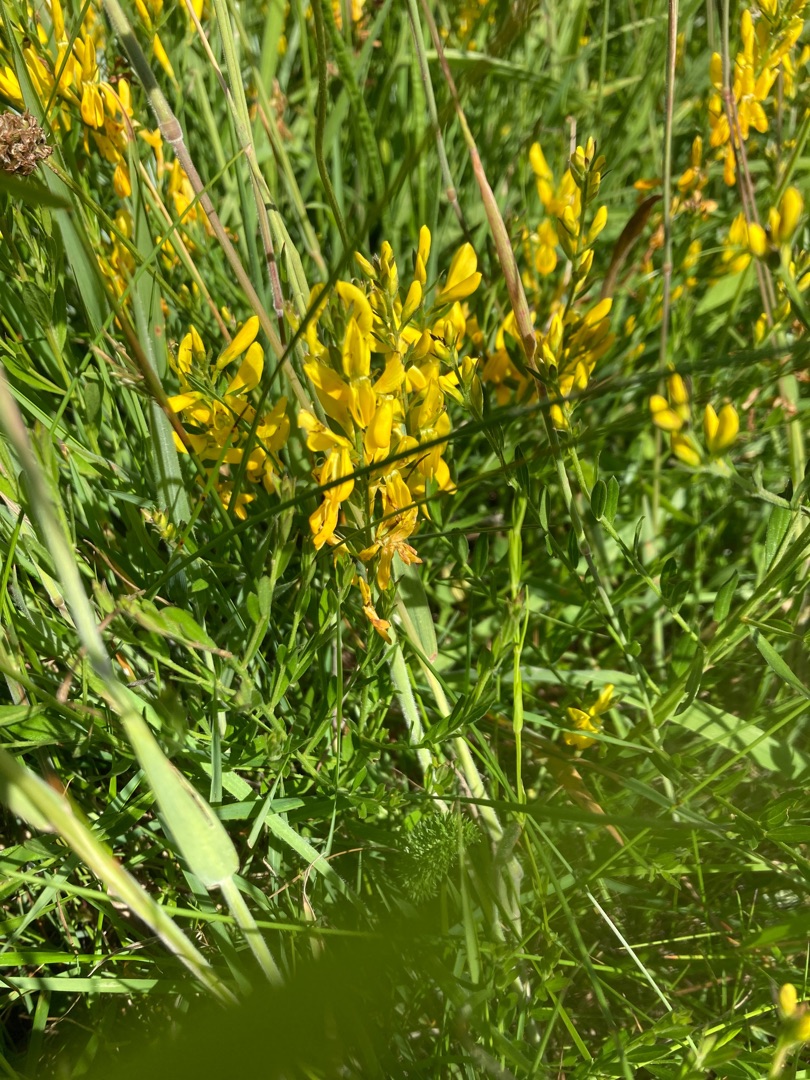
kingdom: Plantae
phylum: Tracheophyta
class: Magnoliopsida
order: Fabales
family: Fabaceae
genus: Genista
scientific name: Genista tinctoria
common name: Farve-visse
